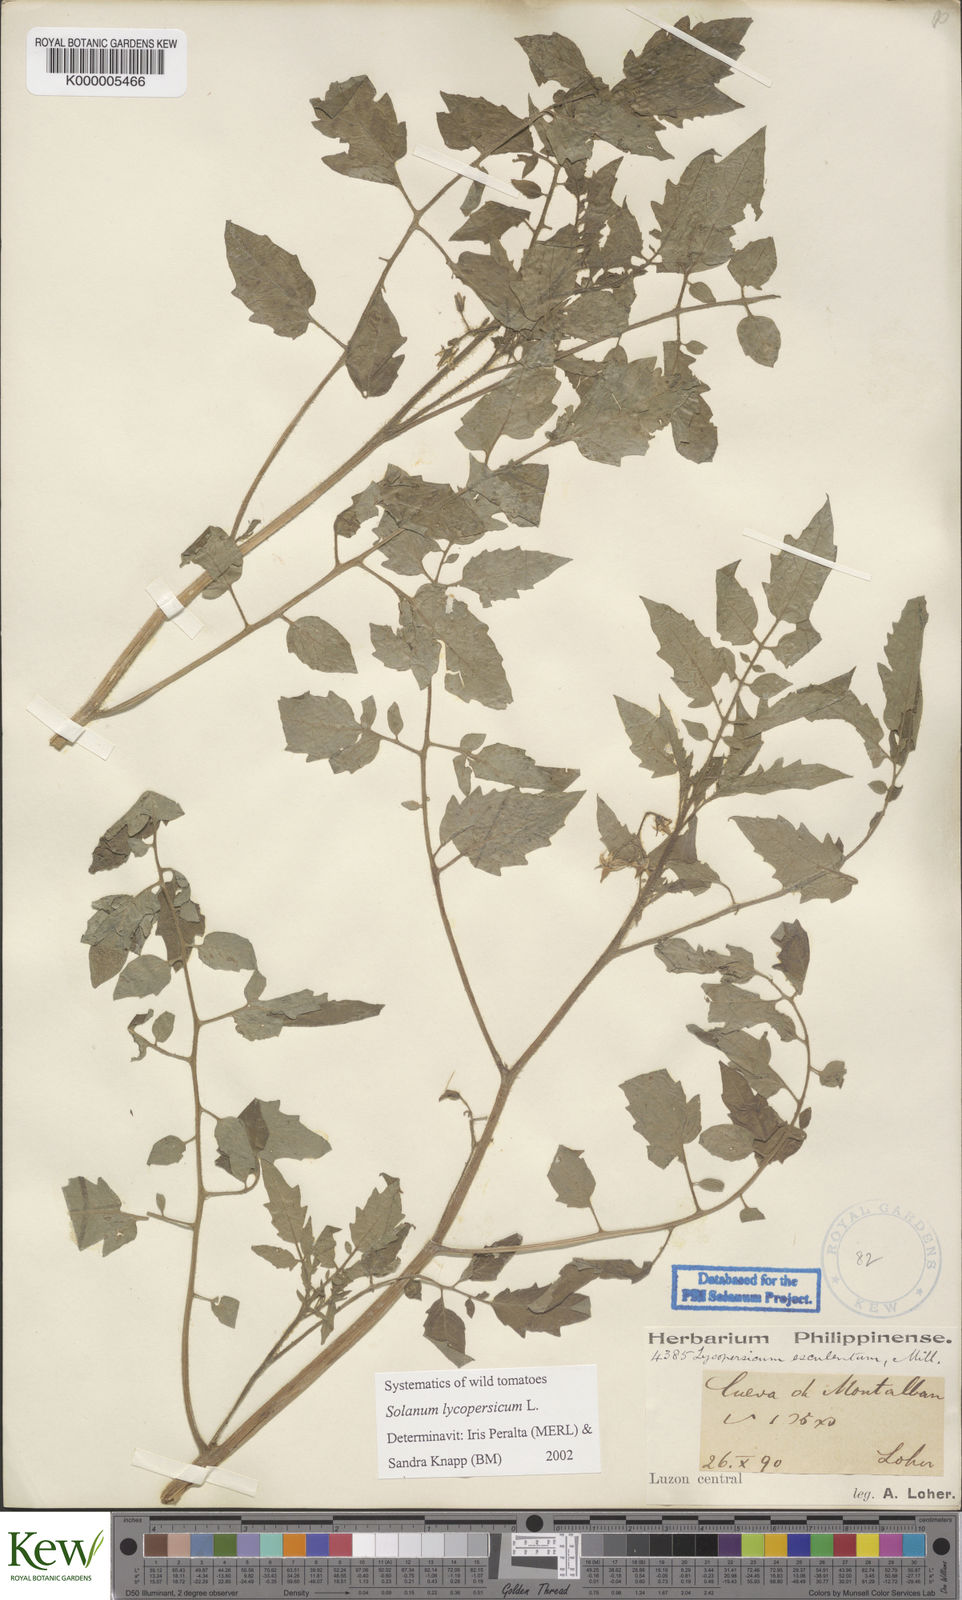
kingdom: Plantae
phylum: Tracheophyta
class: Magnoliopsida
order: Solanales
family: Solanaceae
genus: Solanum
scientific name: Solanum lycopersicum
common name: Garden tomato
